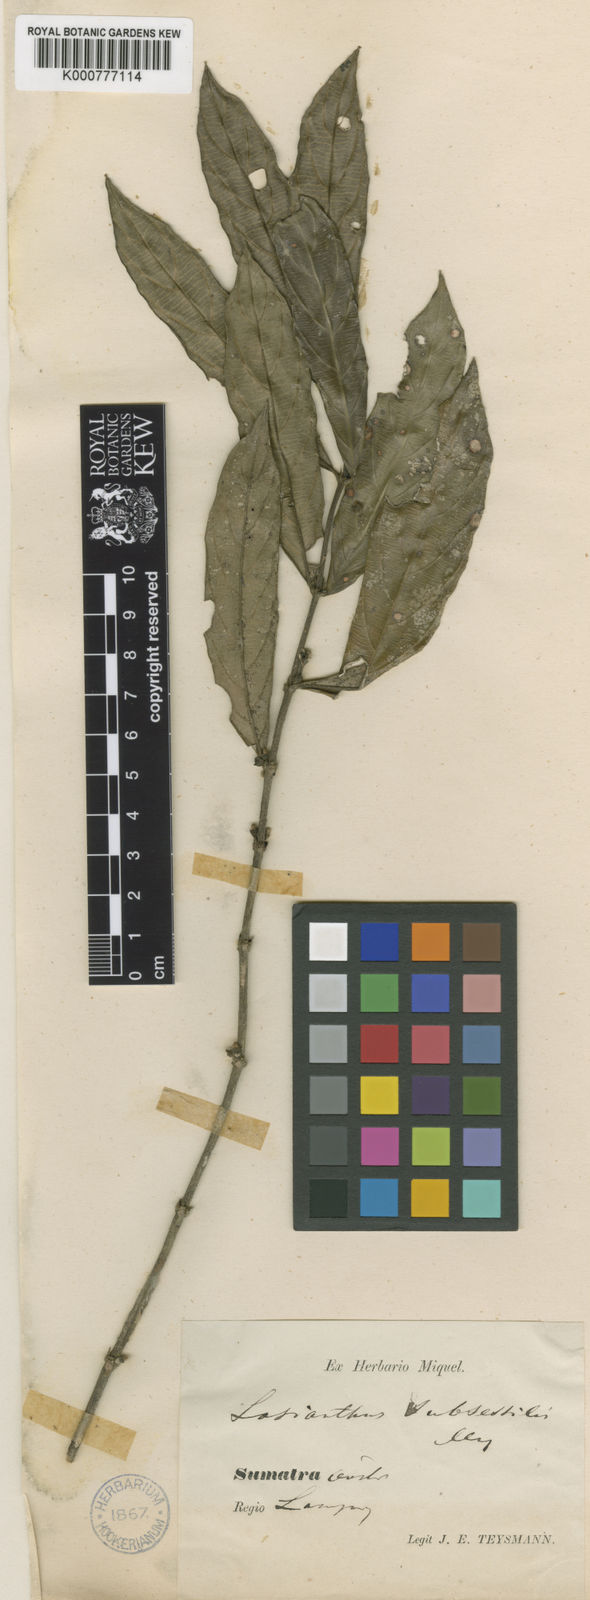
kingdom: Plantae
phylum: Tracheophyta
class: Magnoliopsida
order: Gentianales
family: Rubiaceae
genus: Lasianthus
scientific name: Lasianthus verticillatus
